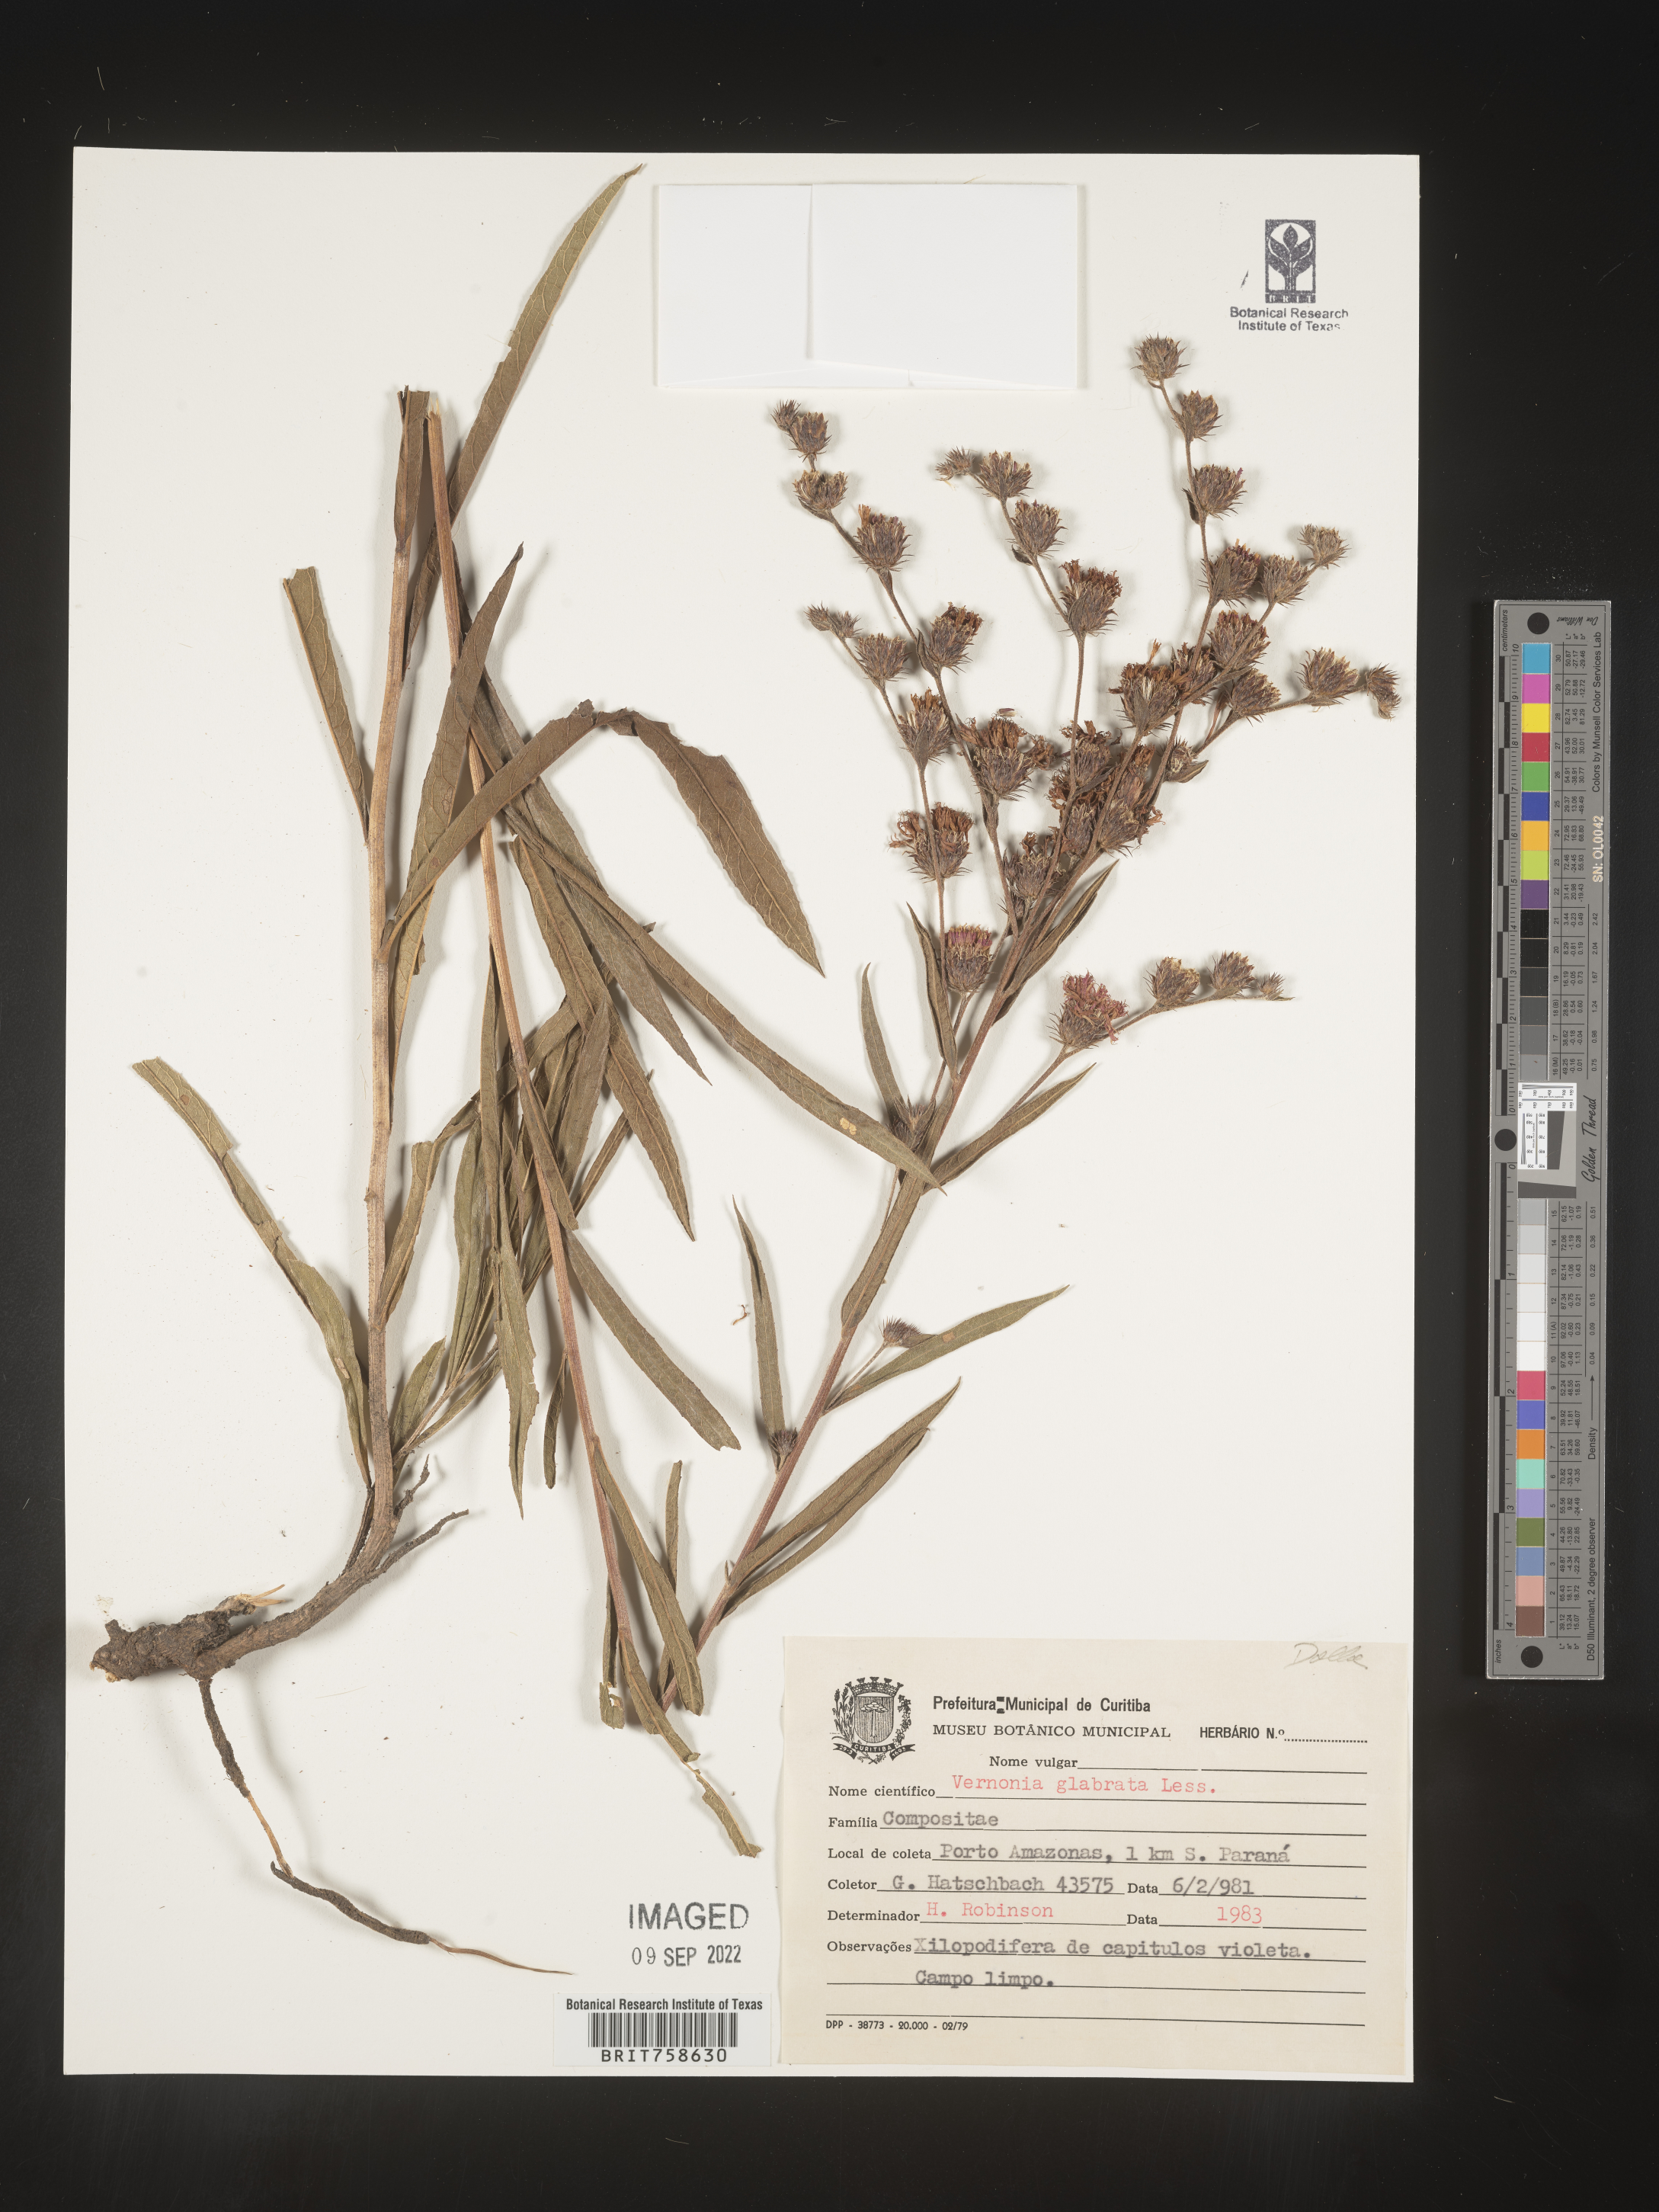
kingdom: Plantae
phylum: Tracheophyta
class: Magnoliopsida
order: Asterales
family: Asteraceae
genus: Vernonia
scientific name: Vernonia
